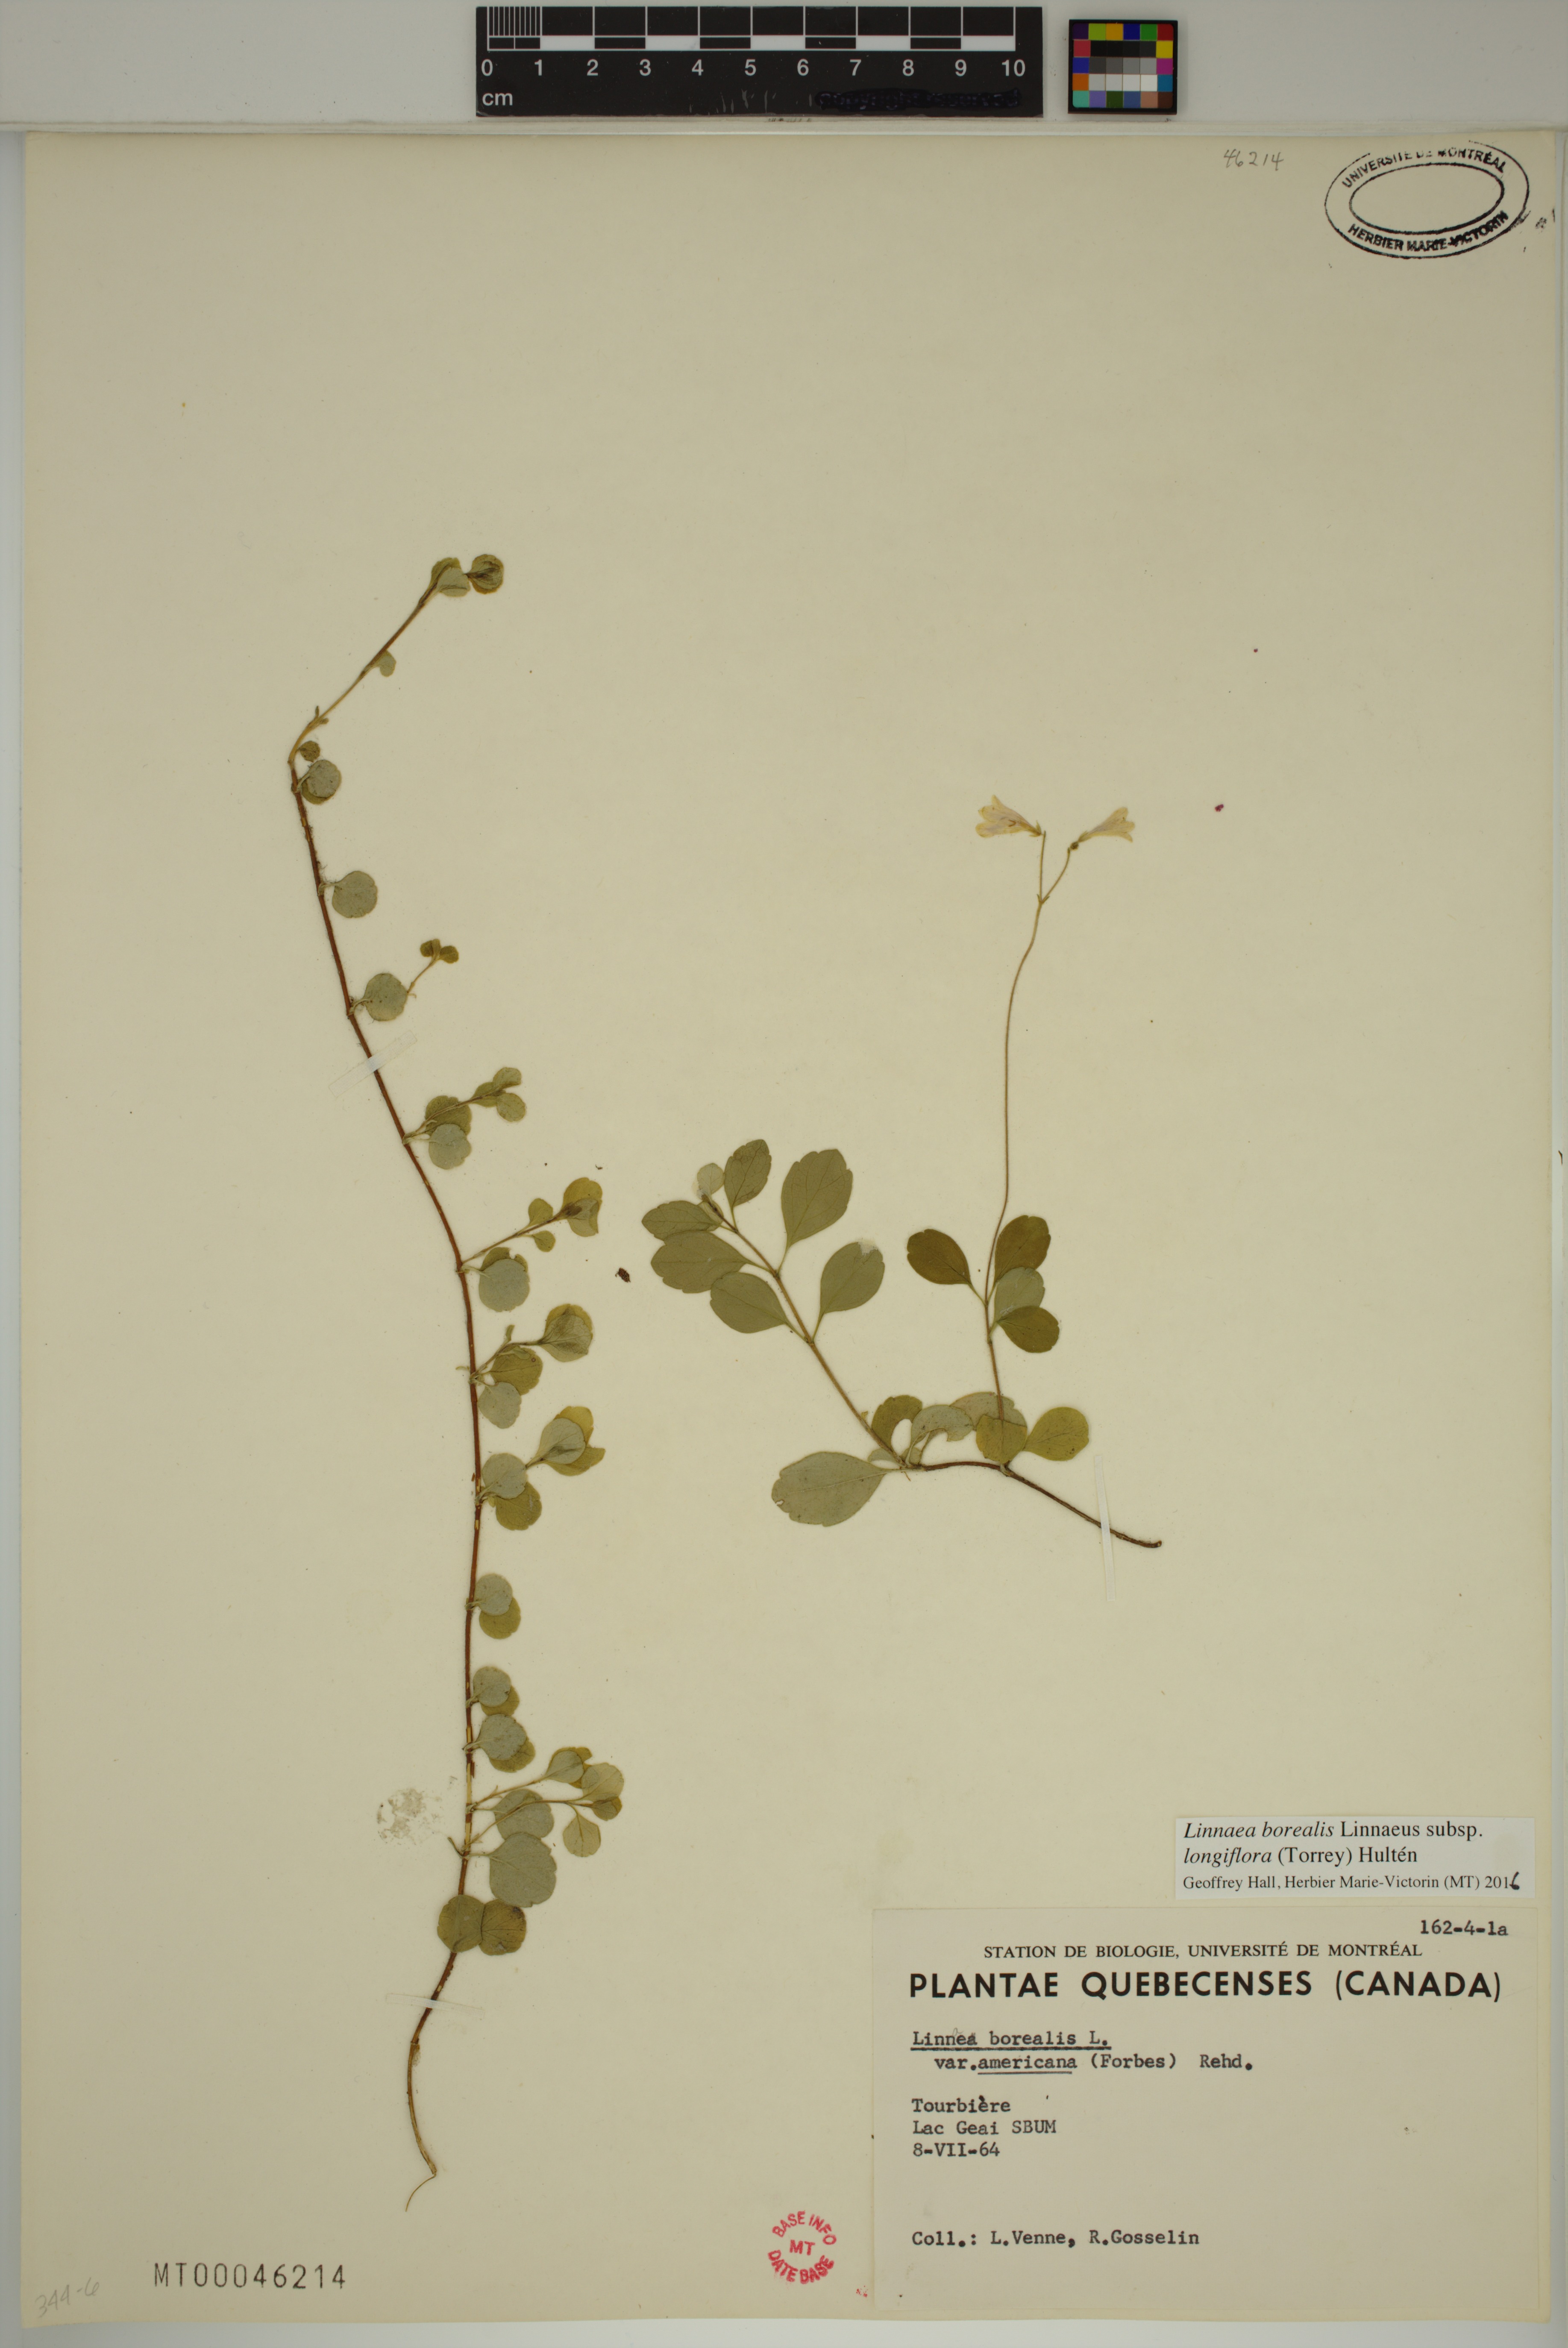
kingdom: Plantae
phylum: Tracheophyta
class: Magnoliopsida
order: Dipsacales
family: Caprifoliaceae
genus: Linnaea
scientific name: Linnaea borealis
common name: Twinflower
